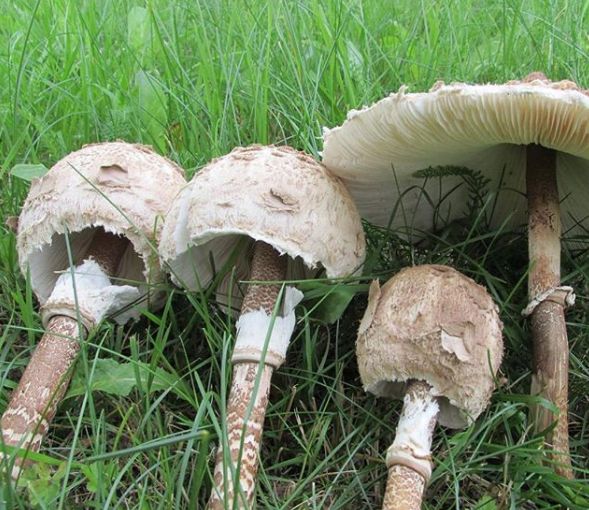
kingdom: Fungi
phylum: Basidiomycota
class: Agaricomycetes
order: Agaricales
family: Agaricaceae
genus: Macrolepiota
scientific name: Macrolepiota procera
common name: Parasol
